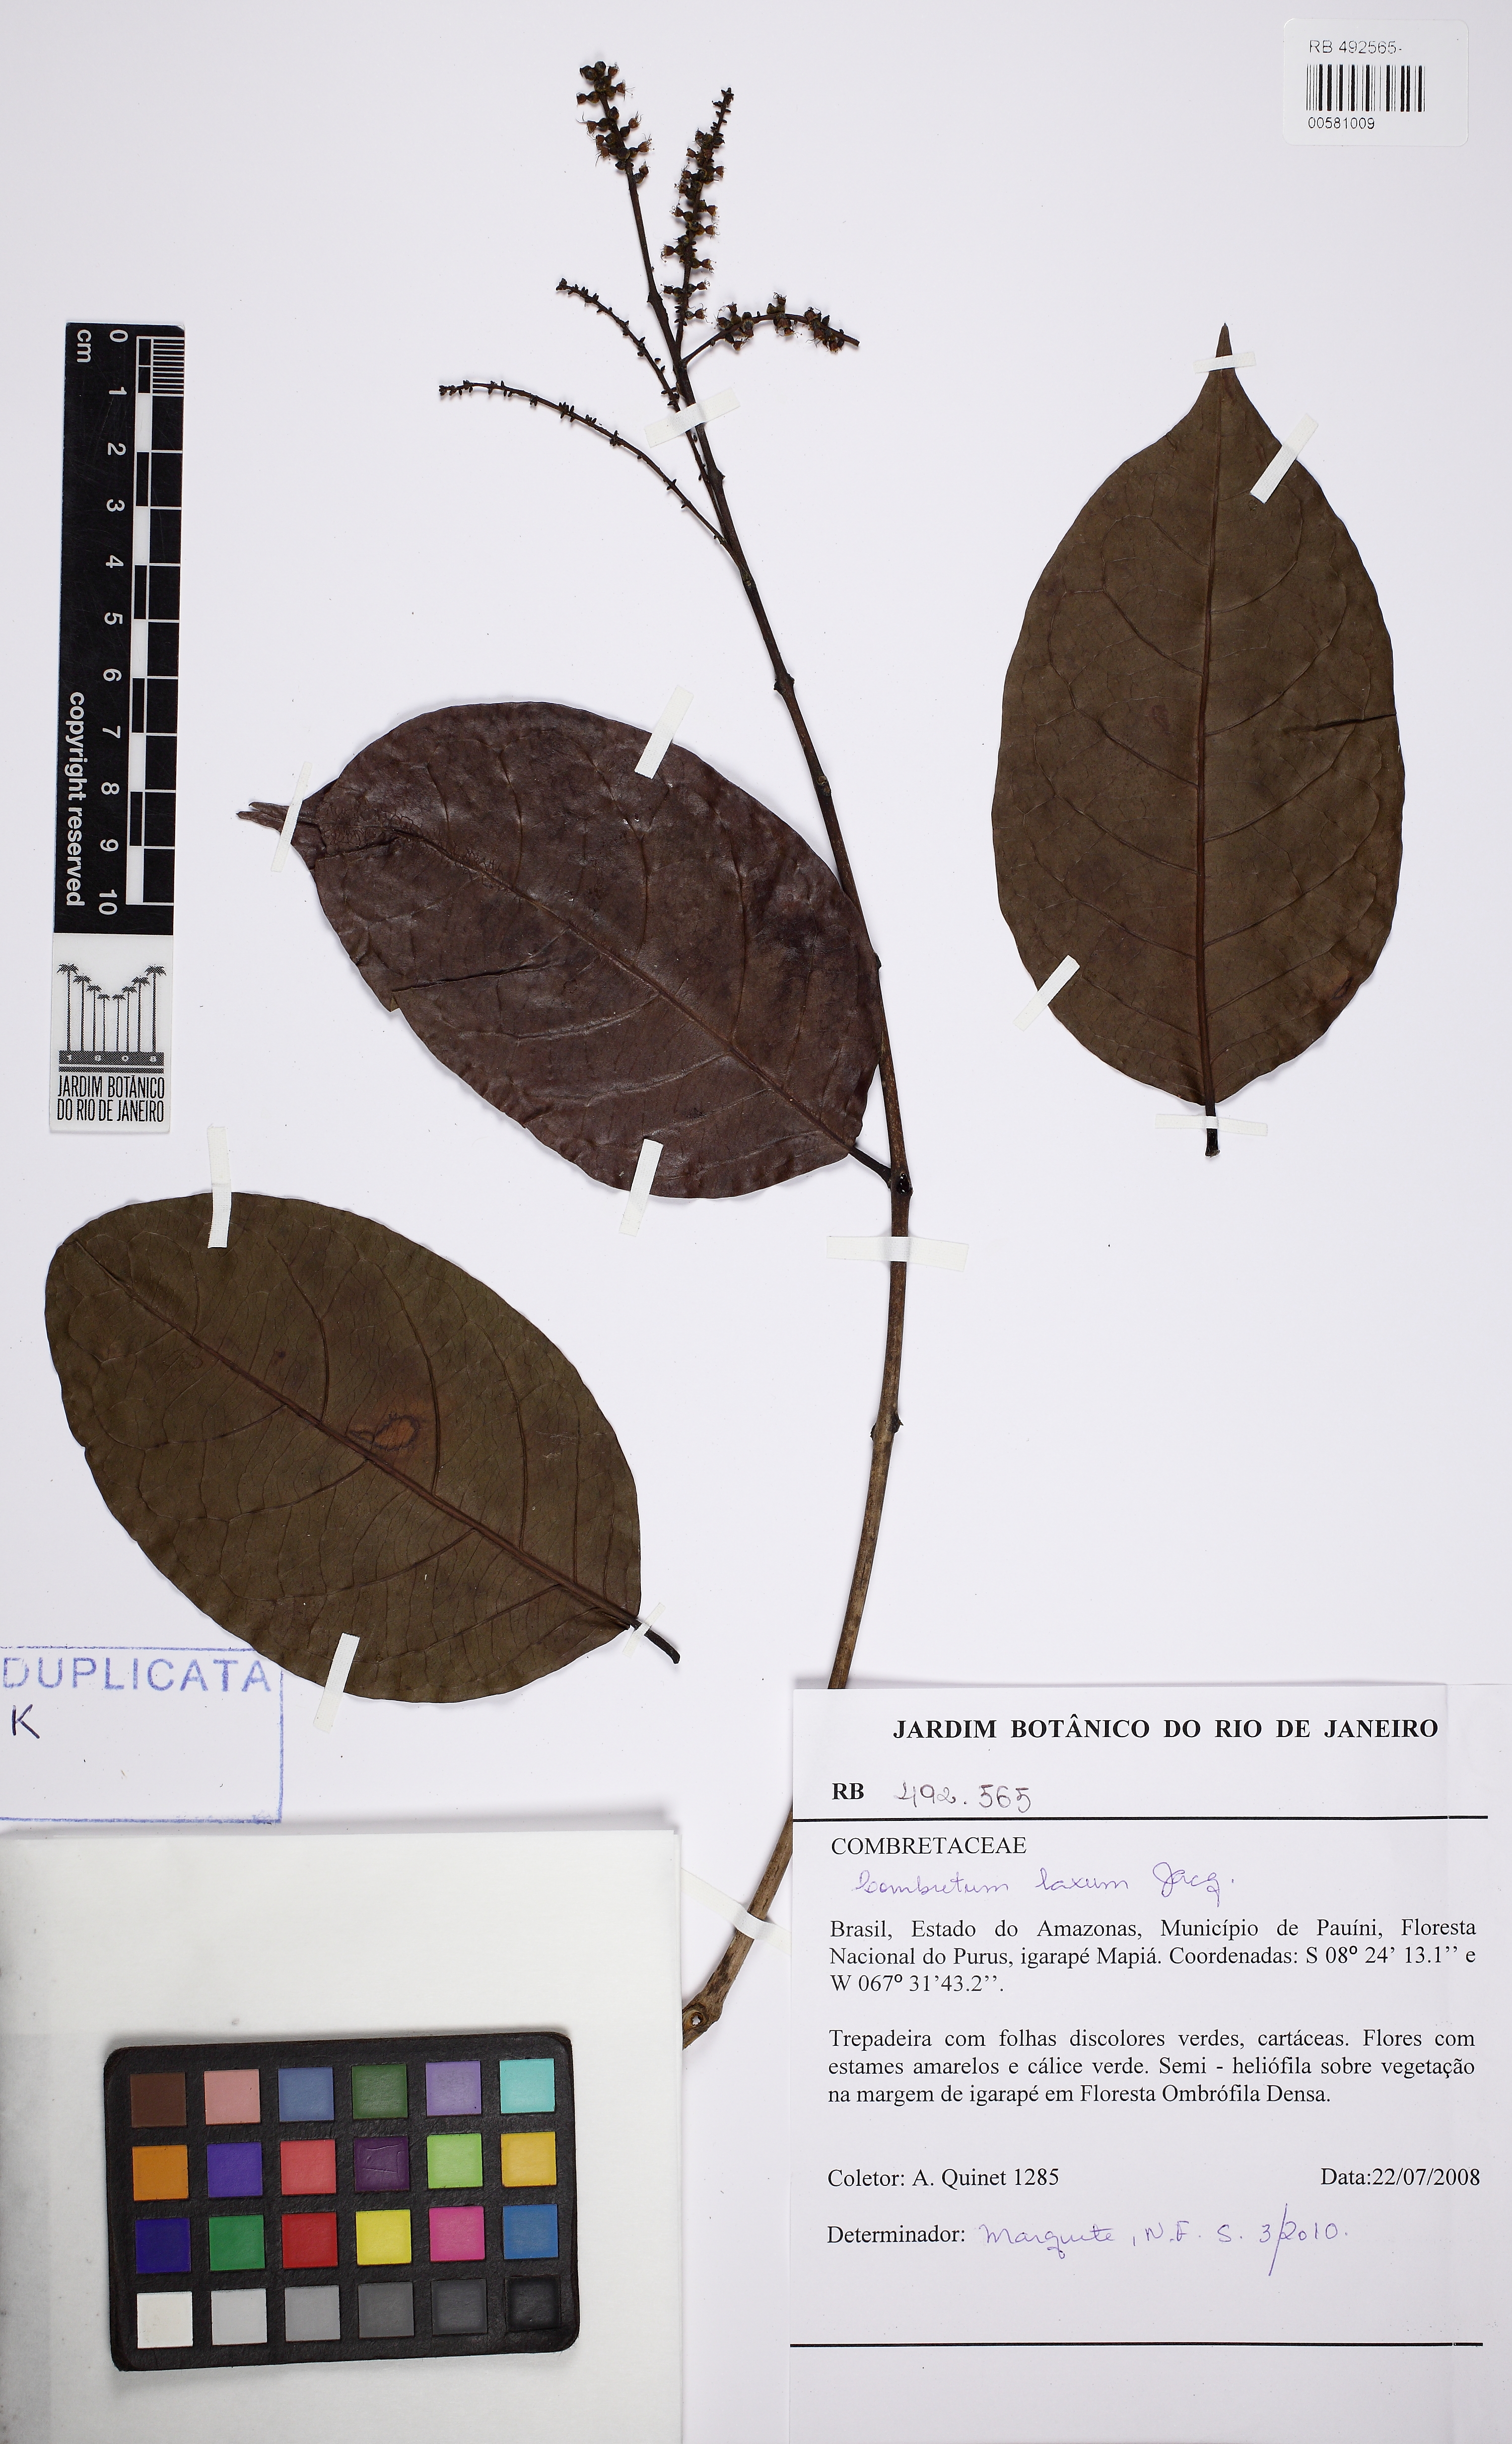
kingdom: Plantae
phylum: Tracheophyta
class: Magnoliopsida
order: Myrtales
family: Combretaceae
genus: Combretum
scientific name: Combretum laxum
